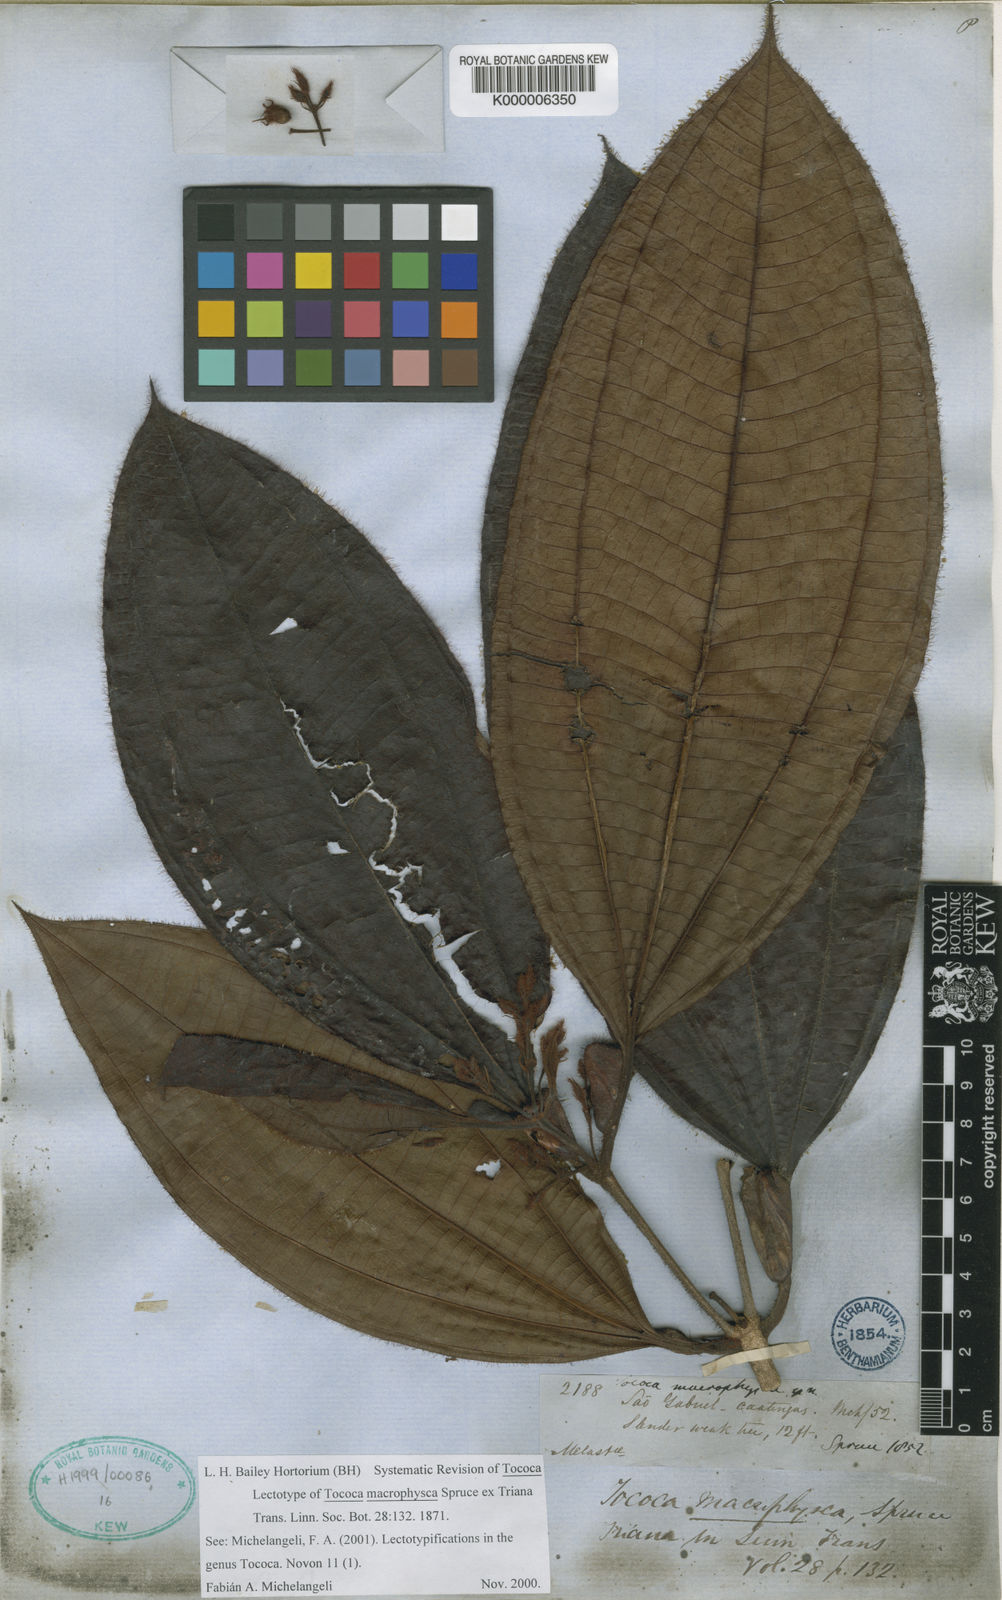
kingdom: Plantae
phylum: Tracheophyta
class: Magnoliopsida
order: Myrtales
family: Melastomataceae
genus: Miconia
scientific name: Miconia macrophysca
